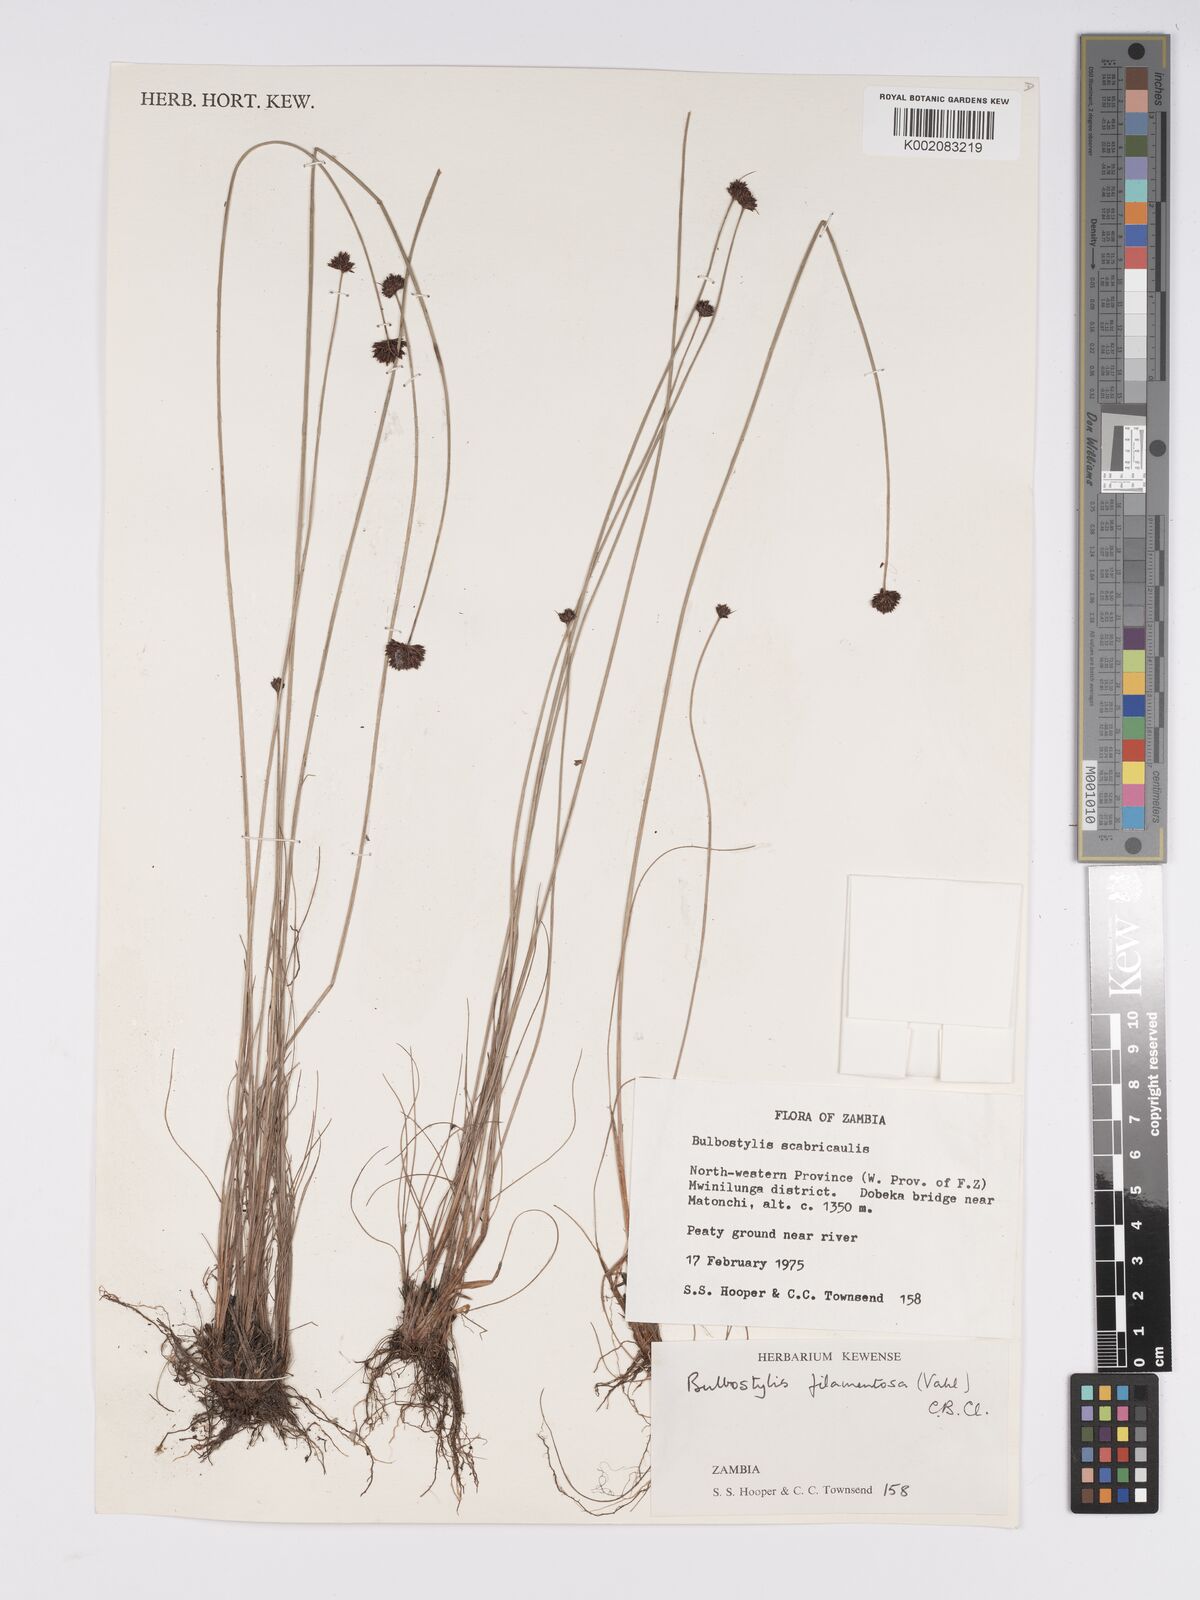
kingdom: Plantae
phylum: Tracheophyta
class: Liliopsida
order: Poales
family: Cyperaceae
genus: Bulbostylis
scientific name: Bulbostylis filamentosa
